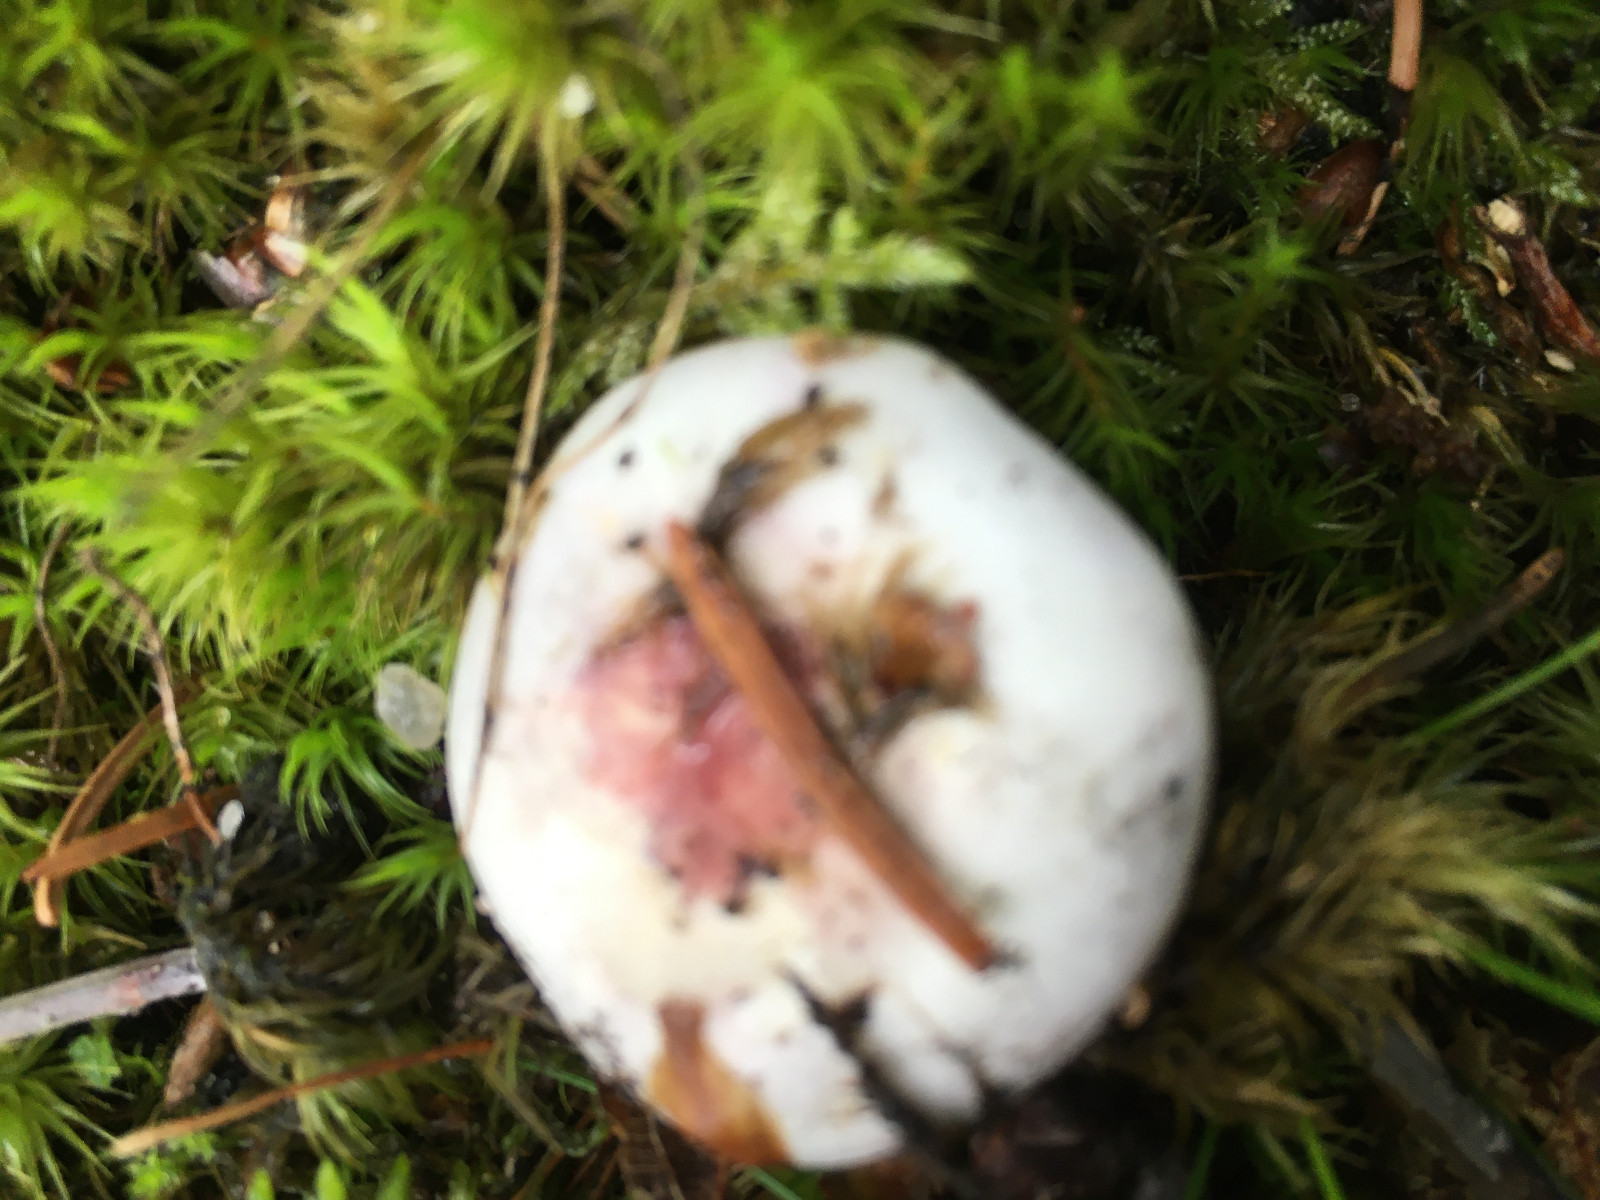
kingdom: Fungi
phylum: Basidiomycota
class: Agaricomycetes
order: Russulales
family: Russulaceae
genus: Russula
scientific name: Russula
